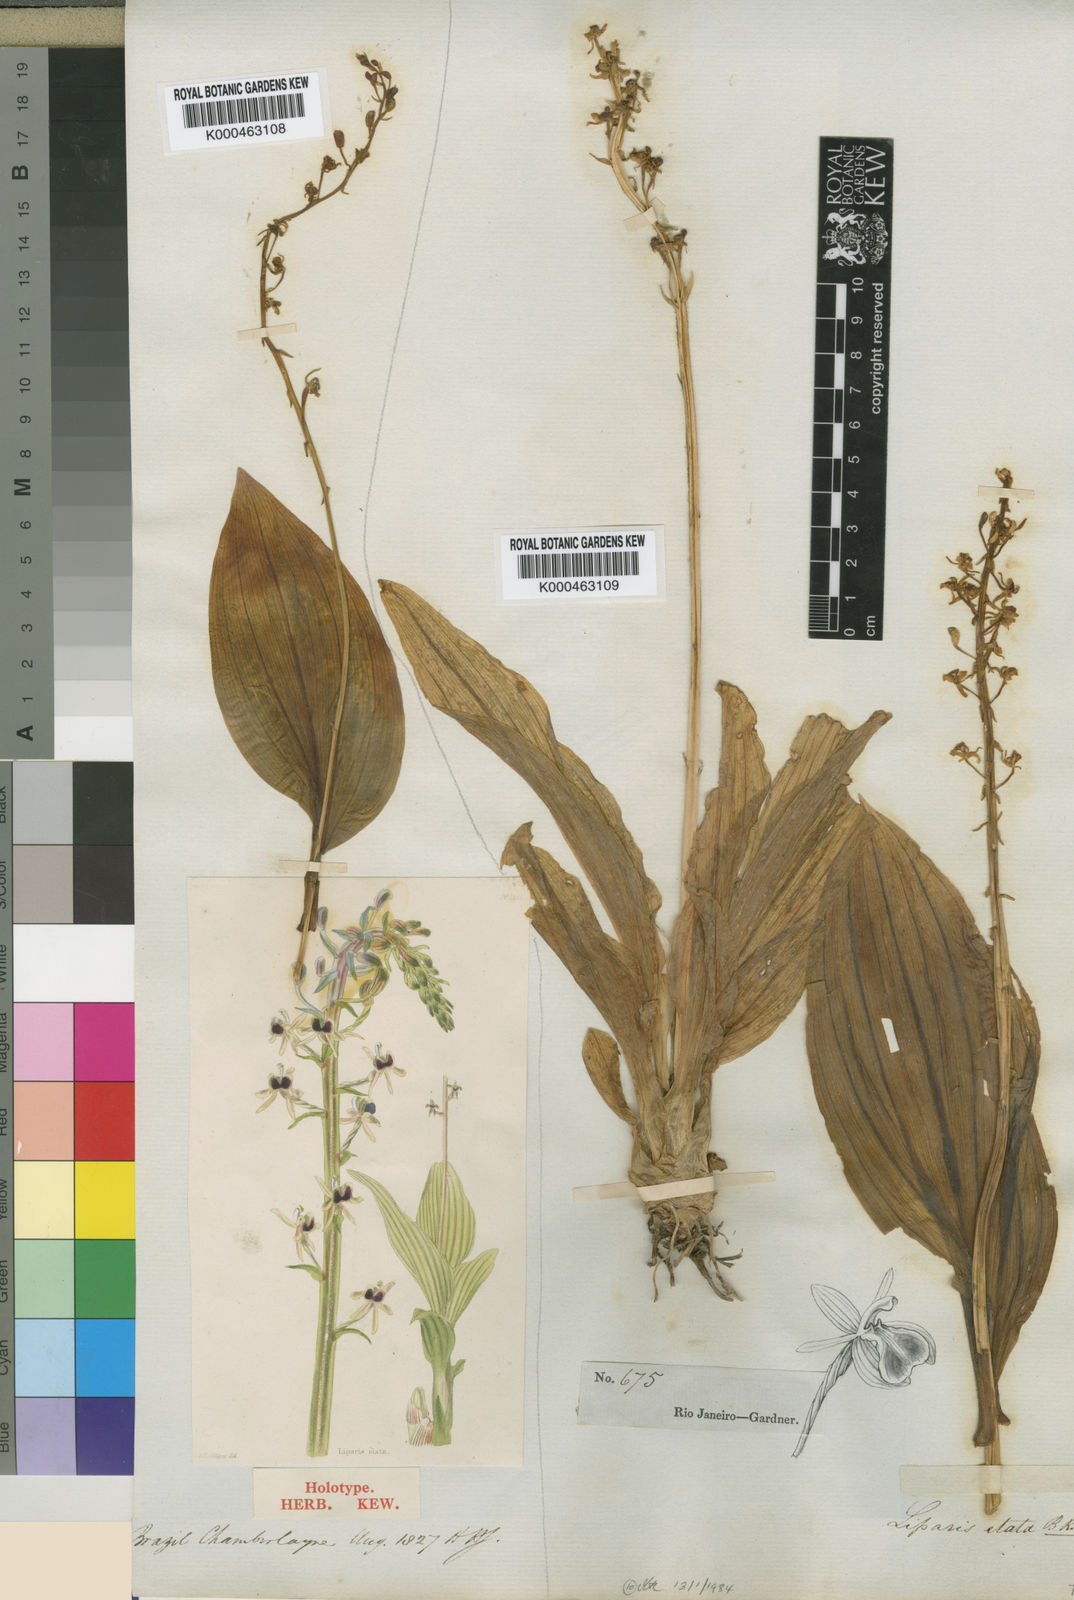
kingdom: Plantae
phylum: Tracheophyta
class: Liliopsida
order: Asparagales
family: Orchidaceae
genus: Liparis
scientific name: Liparis nervosa
